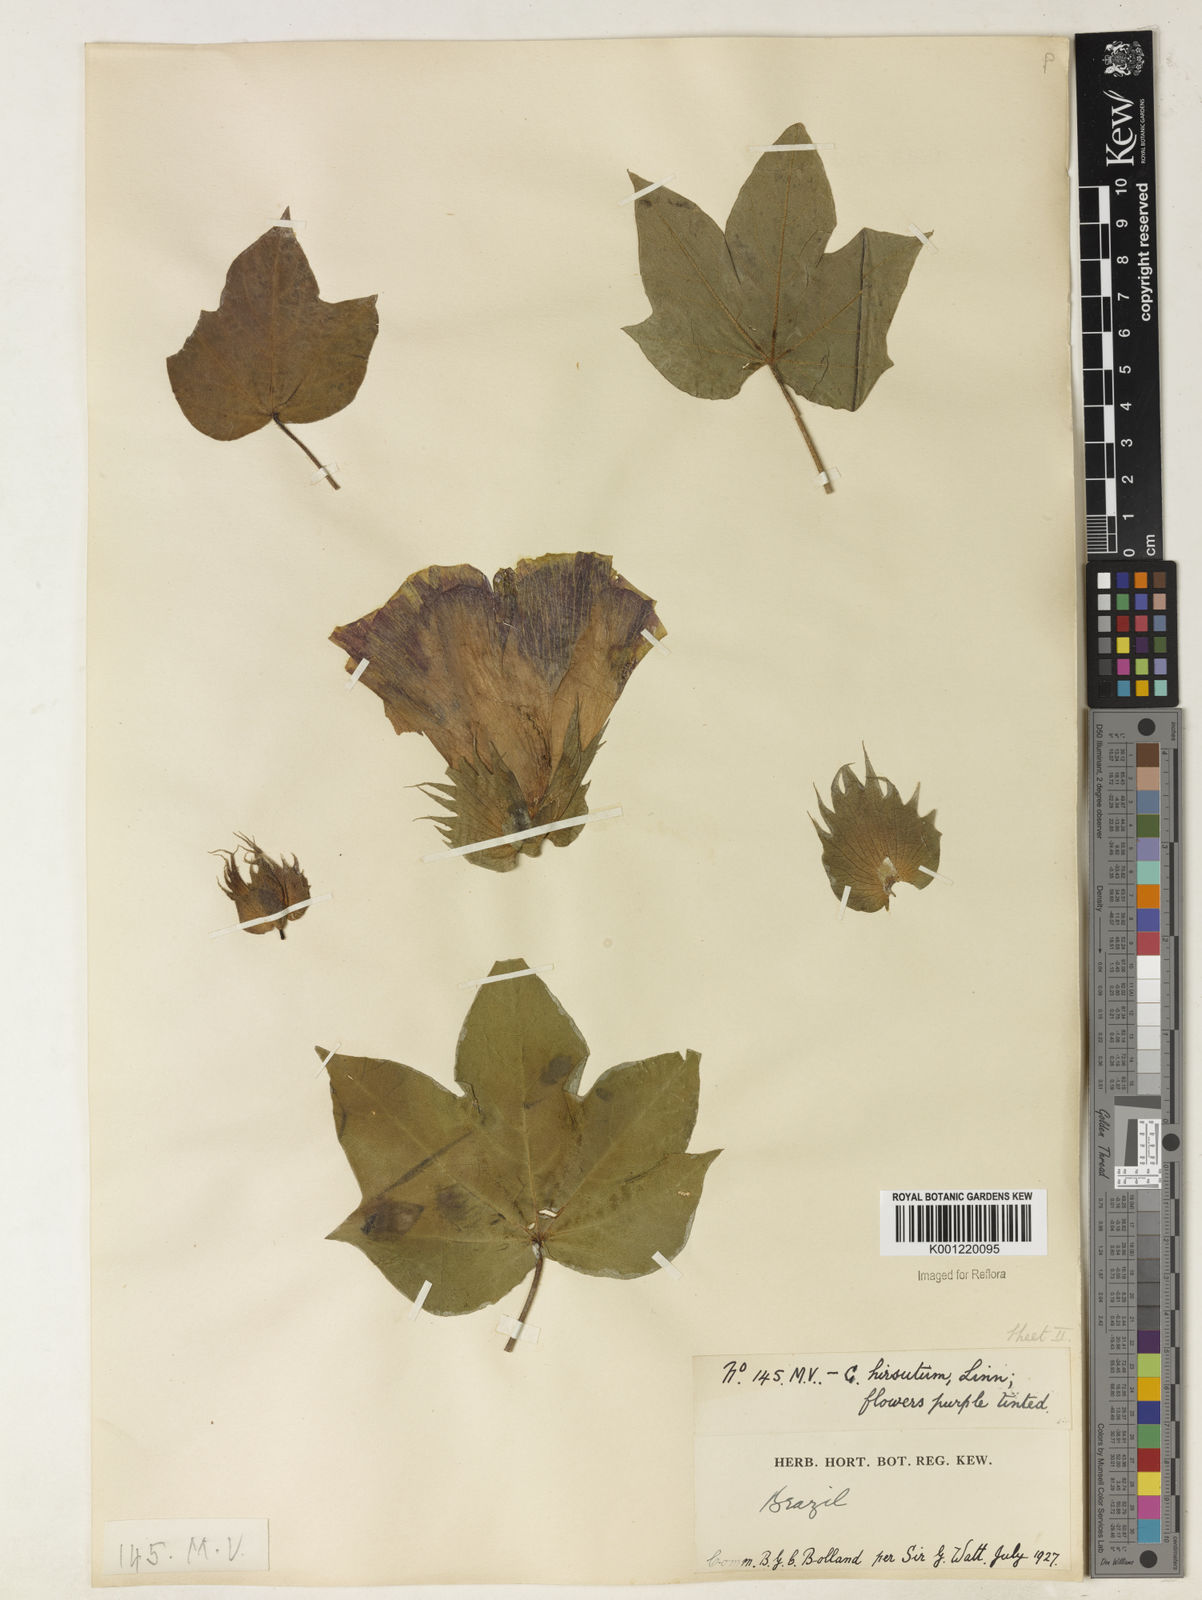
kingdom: Plantae
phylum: Tracheophyta
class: Magnoliopsida
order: Malvales
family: Malvaceae
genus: Gossypium
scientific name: Gossypium hirsutum
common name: Cotton
